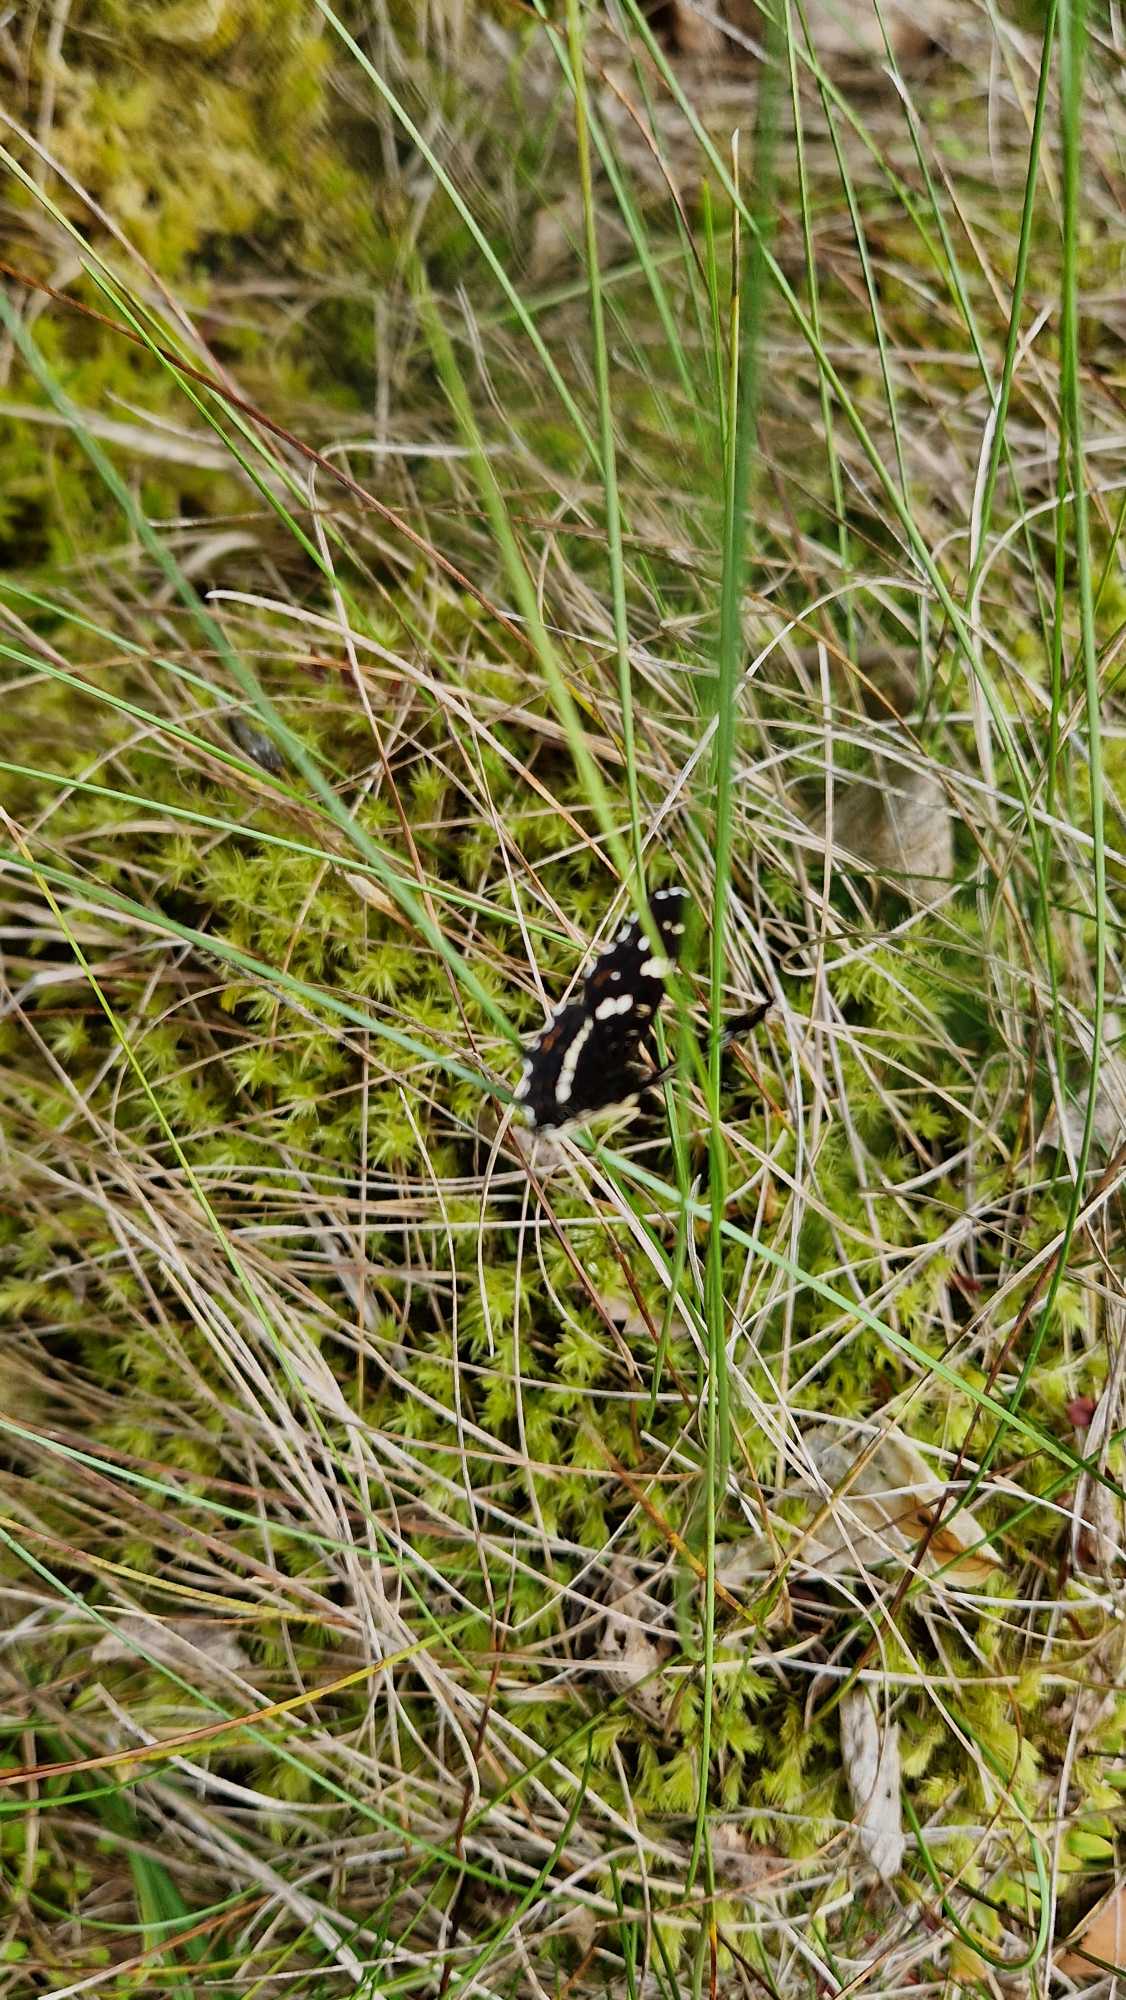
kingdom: Animalia
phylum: Arthropoda
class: Insecta
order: Lepidoptera
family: Nymphalidae
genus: Araschnia
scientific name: Araschnia levana
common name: Nældesommerfugl
